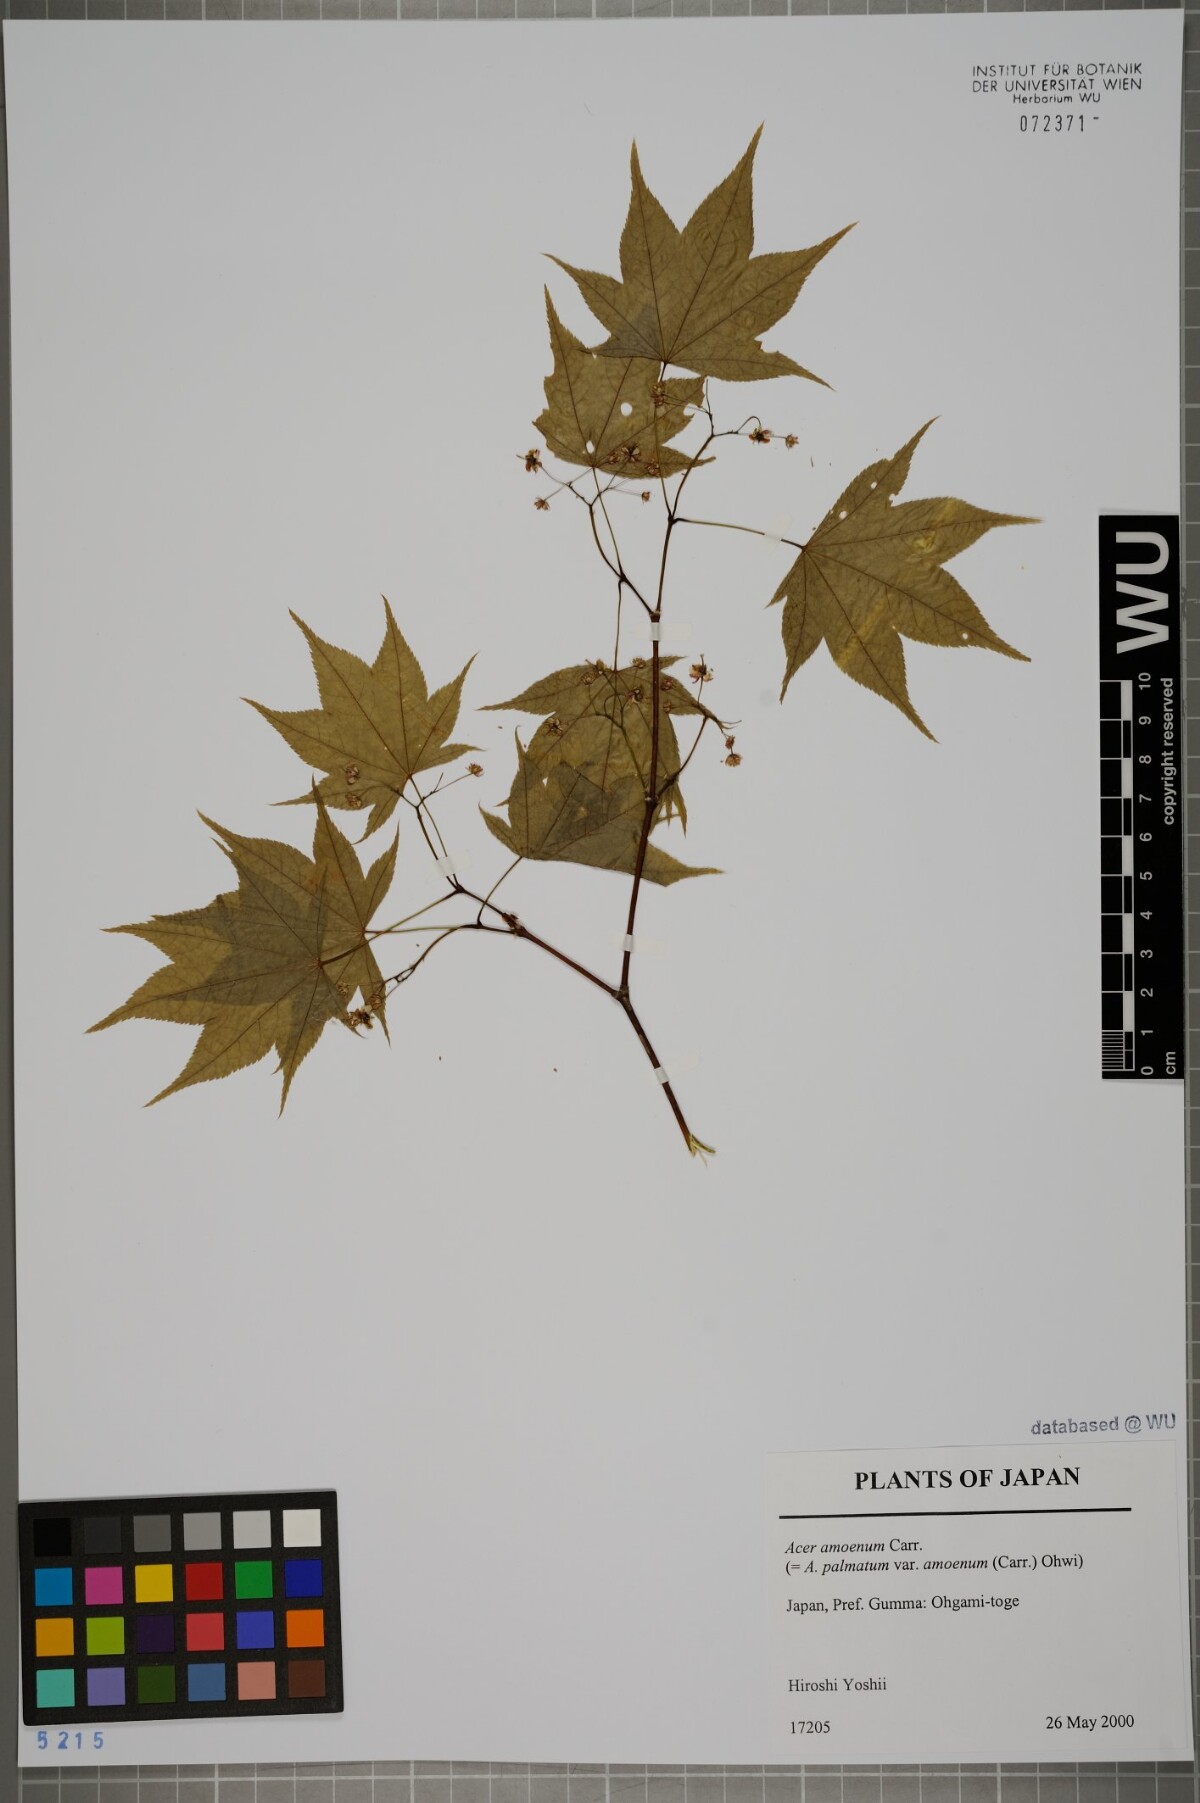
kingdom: Plantae
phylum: Tracheophyta
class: Magnoliopsida
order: Sapindales
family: Sapindaceae
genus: Acer
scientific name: Acer palmatum
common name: Japanese maple
